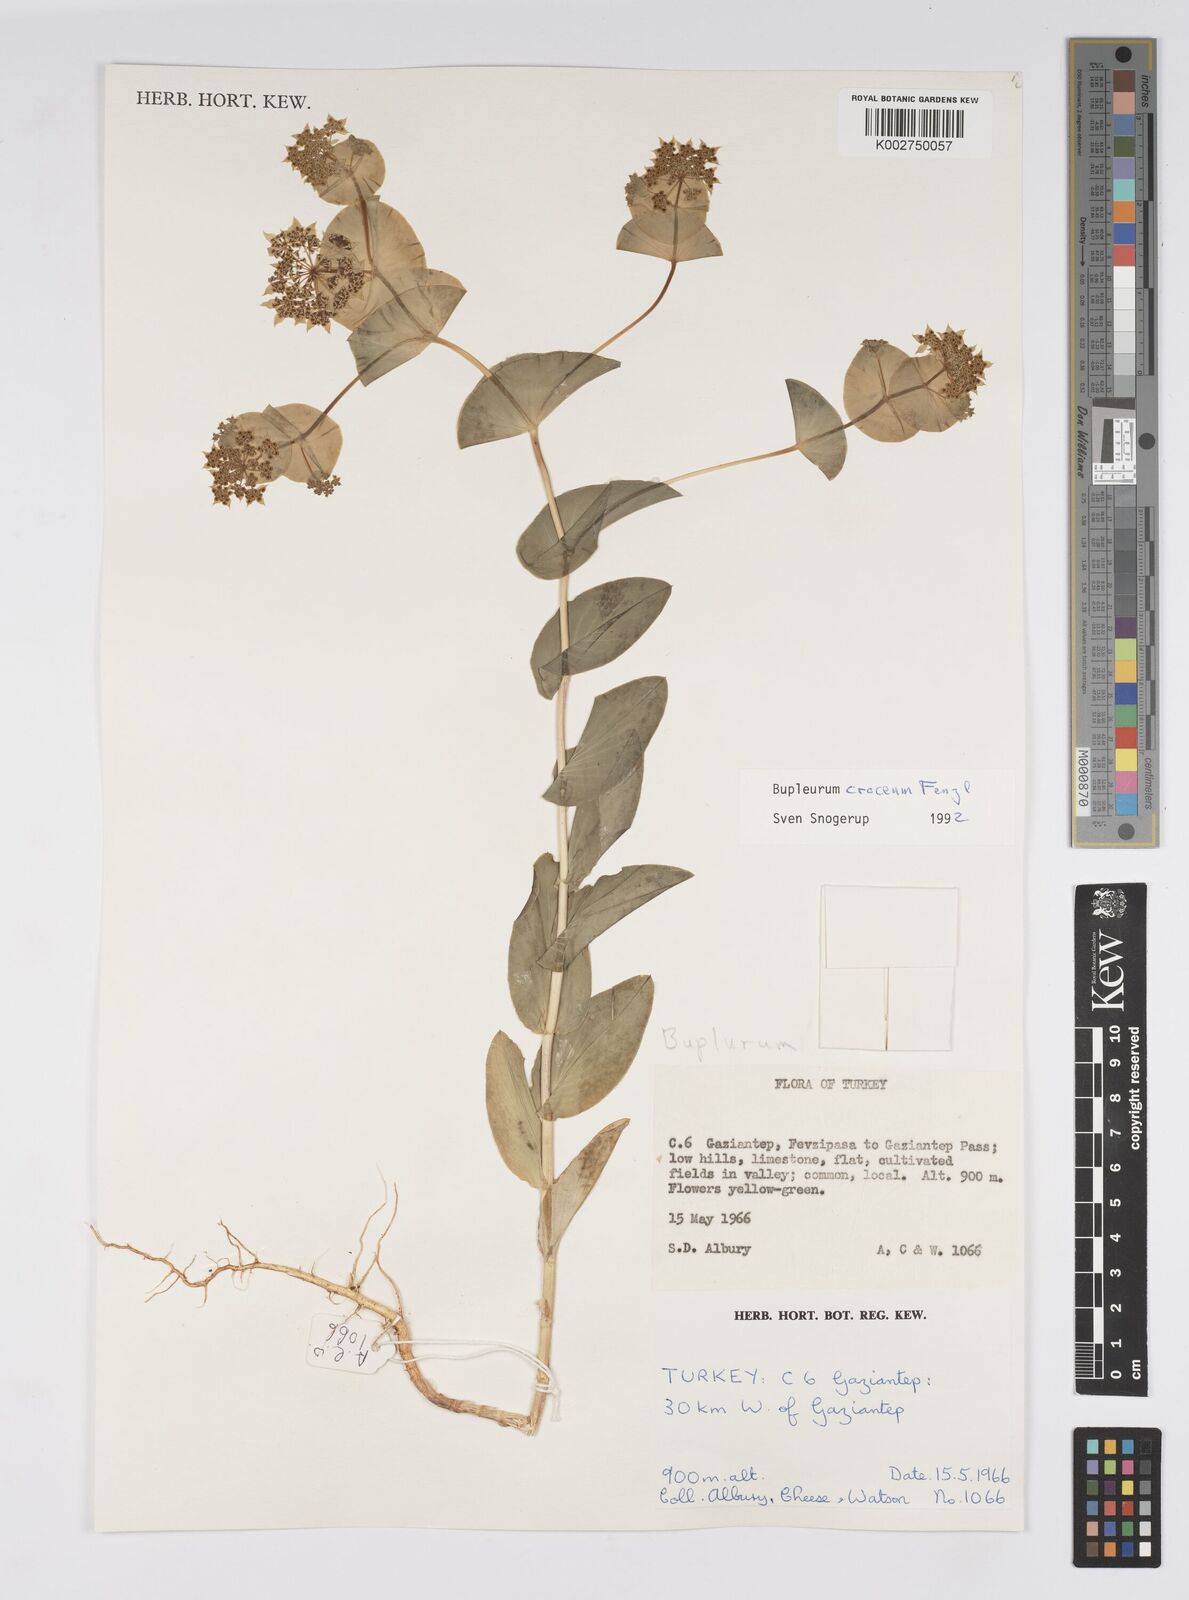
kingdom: Plantae
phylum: Tracheophyta
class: Magnoliopsida
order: Apiales
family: Apiaceae
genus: Bupleurum
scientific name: Bupleurum
